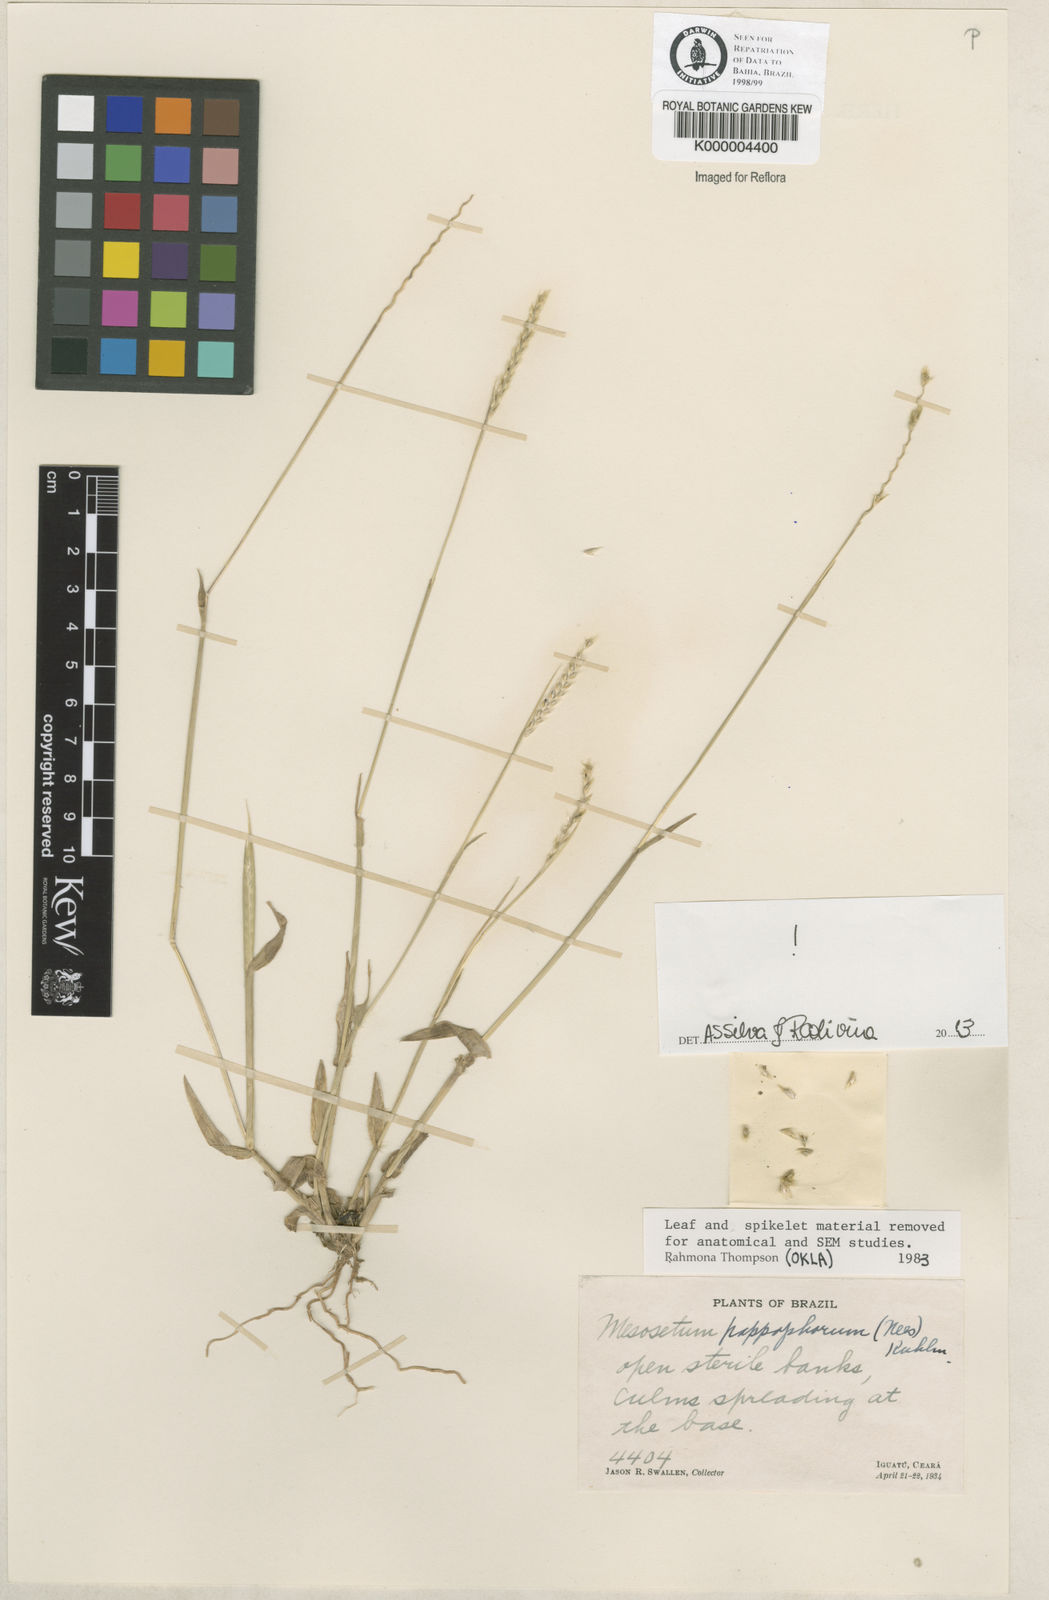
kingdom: Plantae
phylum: Tracheophyta
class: Liliopsida
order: Poales
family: Poaceae
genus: Mesosetum
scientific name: Mesosetum pappophorum
